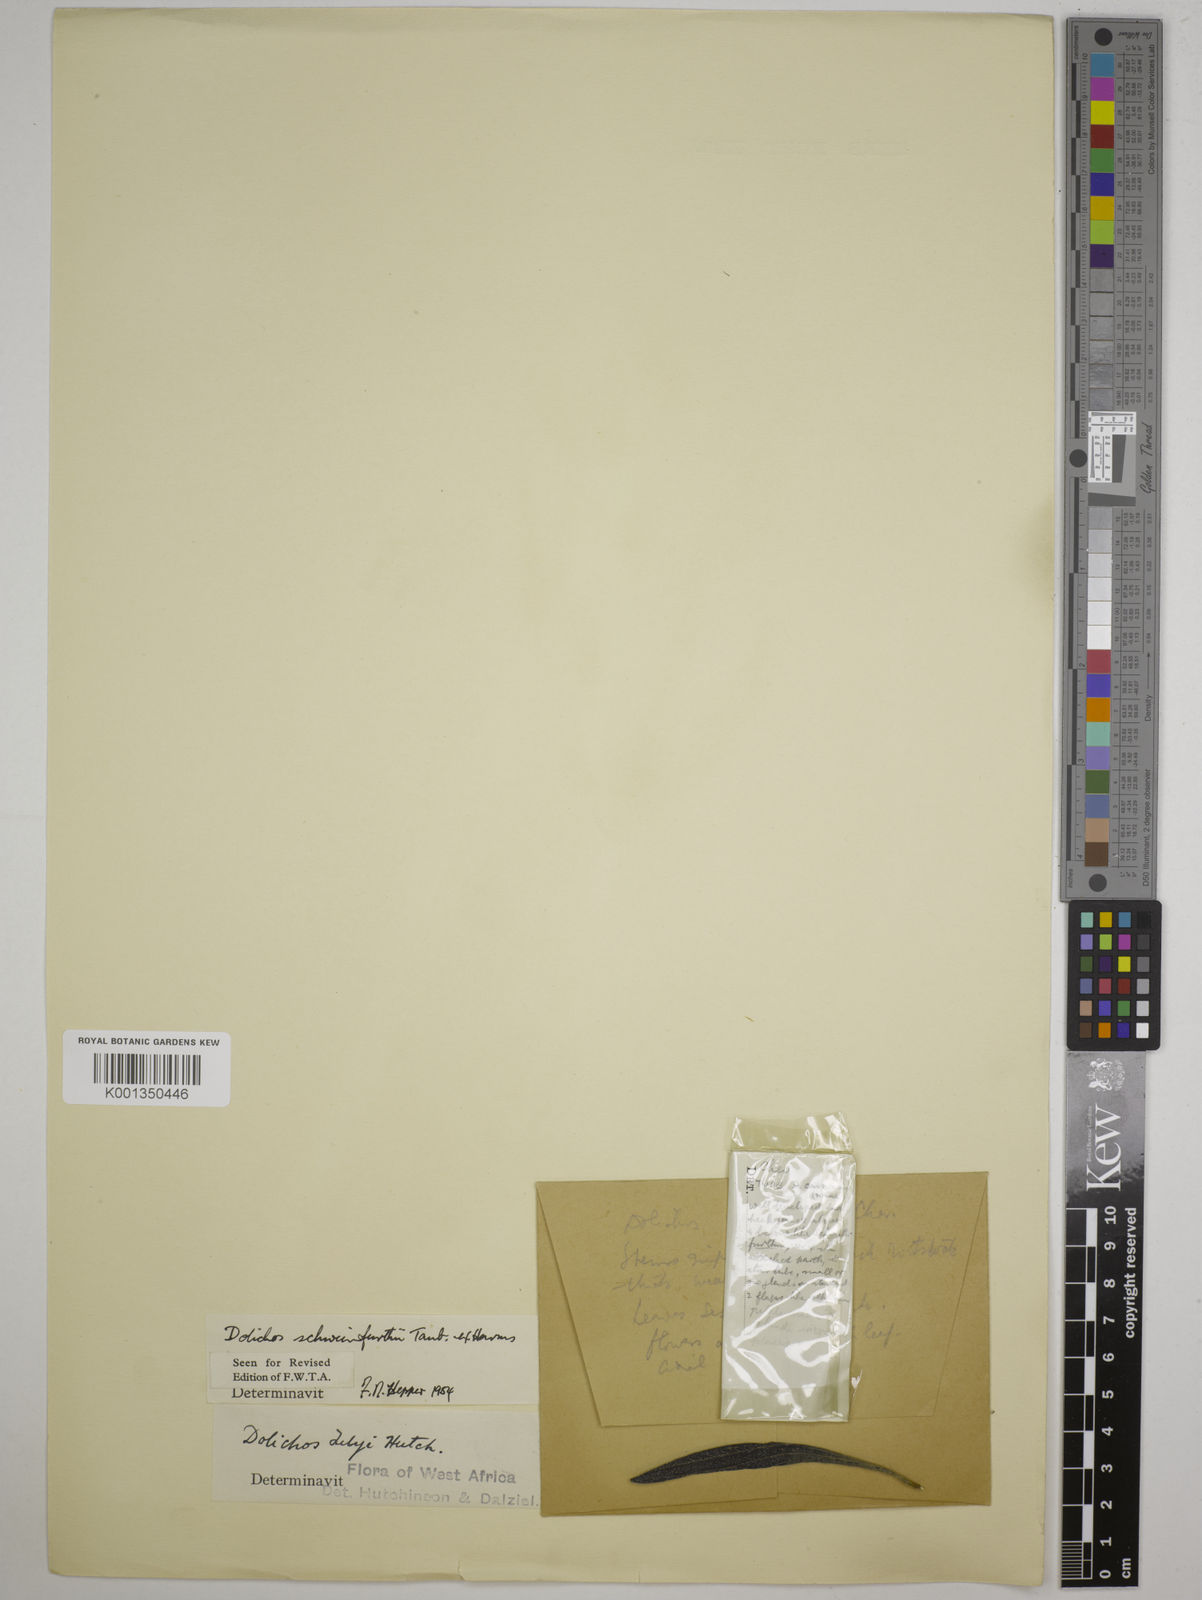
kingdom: Plantae
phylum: Tracheophyta
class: Magnoliopsida
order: Fabales
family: Fabaceae
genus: Dolichos
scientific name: Dolichos schweinfurthii
